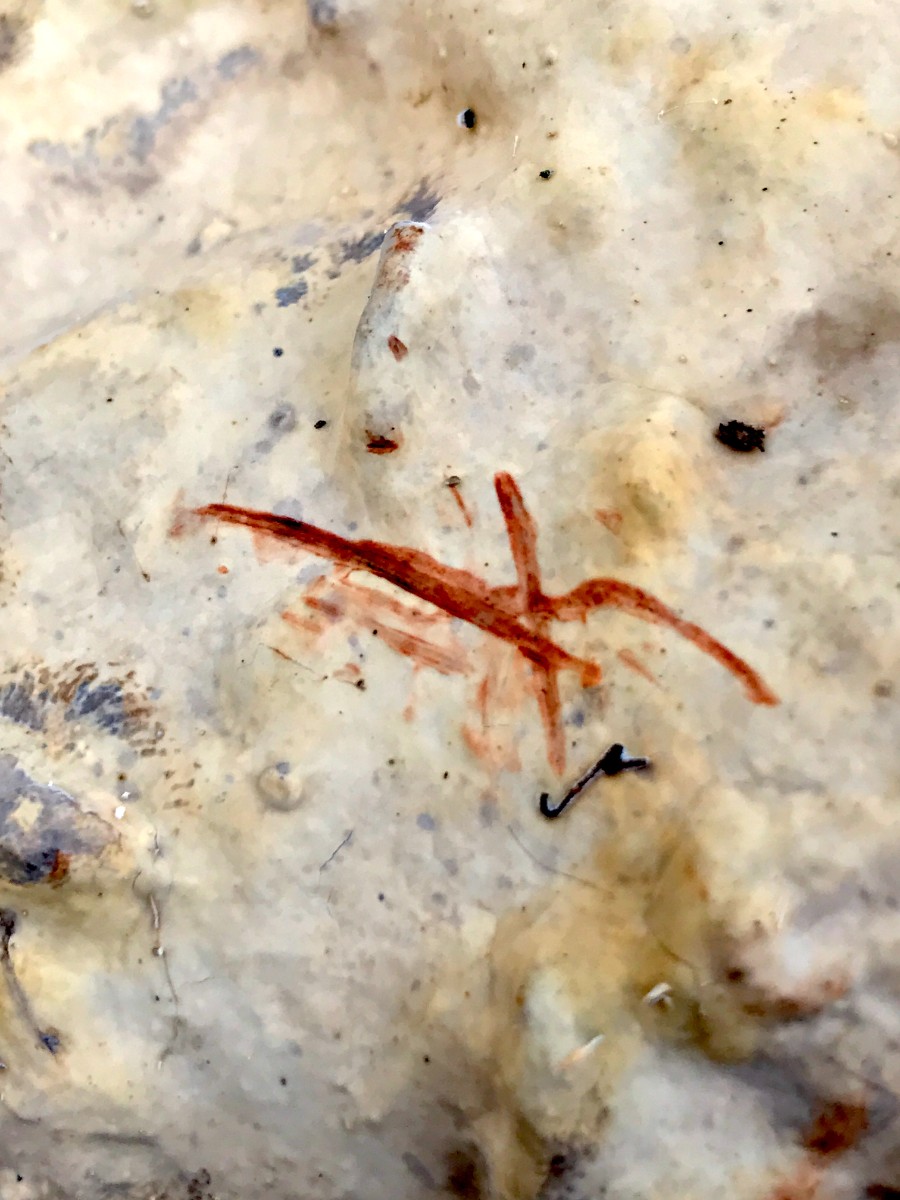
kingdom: Fungi
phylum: Basidiomycota
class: Agaricomycetes
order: Russulales
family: Stereaceae
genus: Stereum
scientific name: Stereum rugosum
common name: rynket lædersvamp
